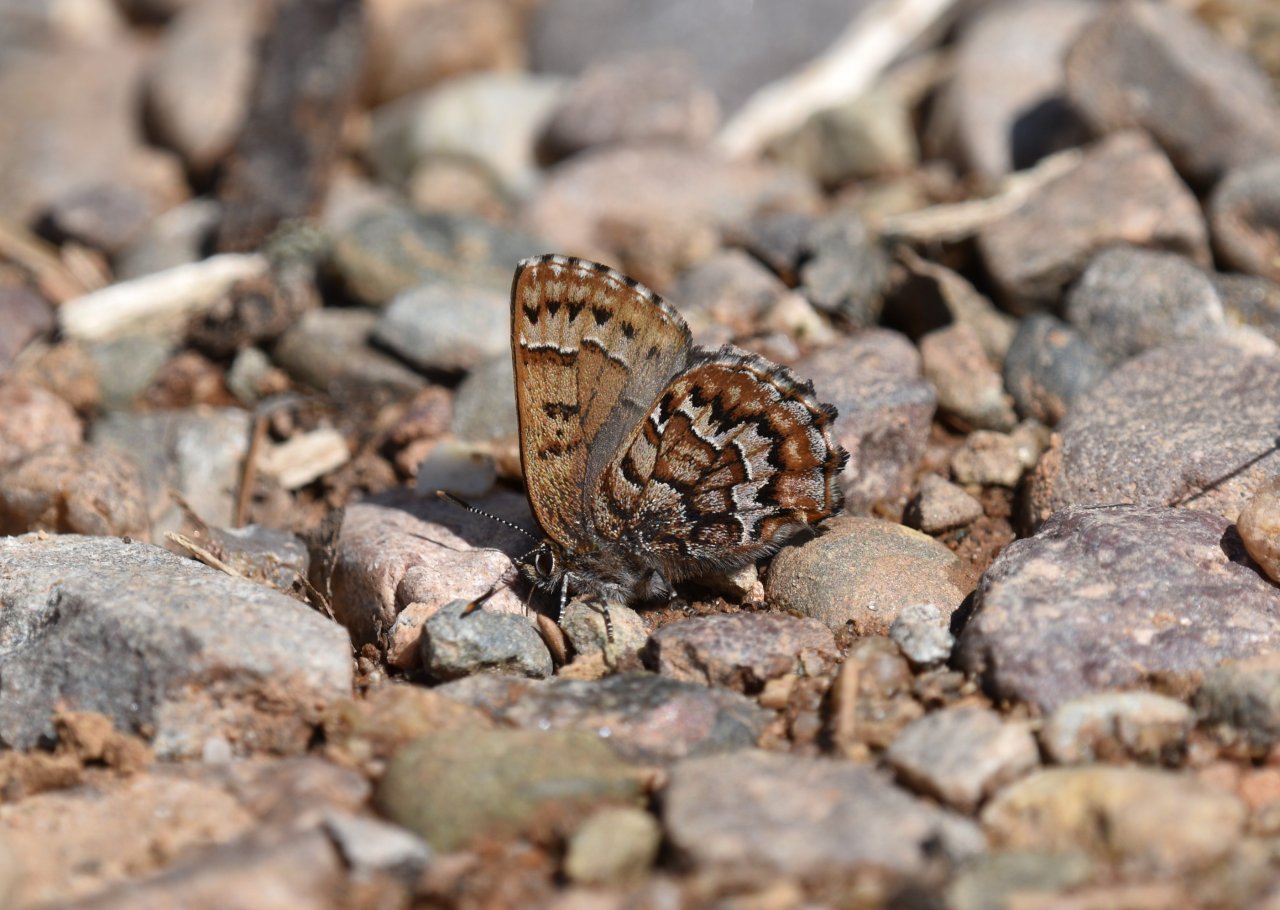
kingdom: Animalia
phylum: Arthropoda
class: Insecta
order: Lepidoptera
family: Lycaenidae
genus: Incisalia
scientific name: Incisalia niphon
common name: Eastern Pine Elfin
